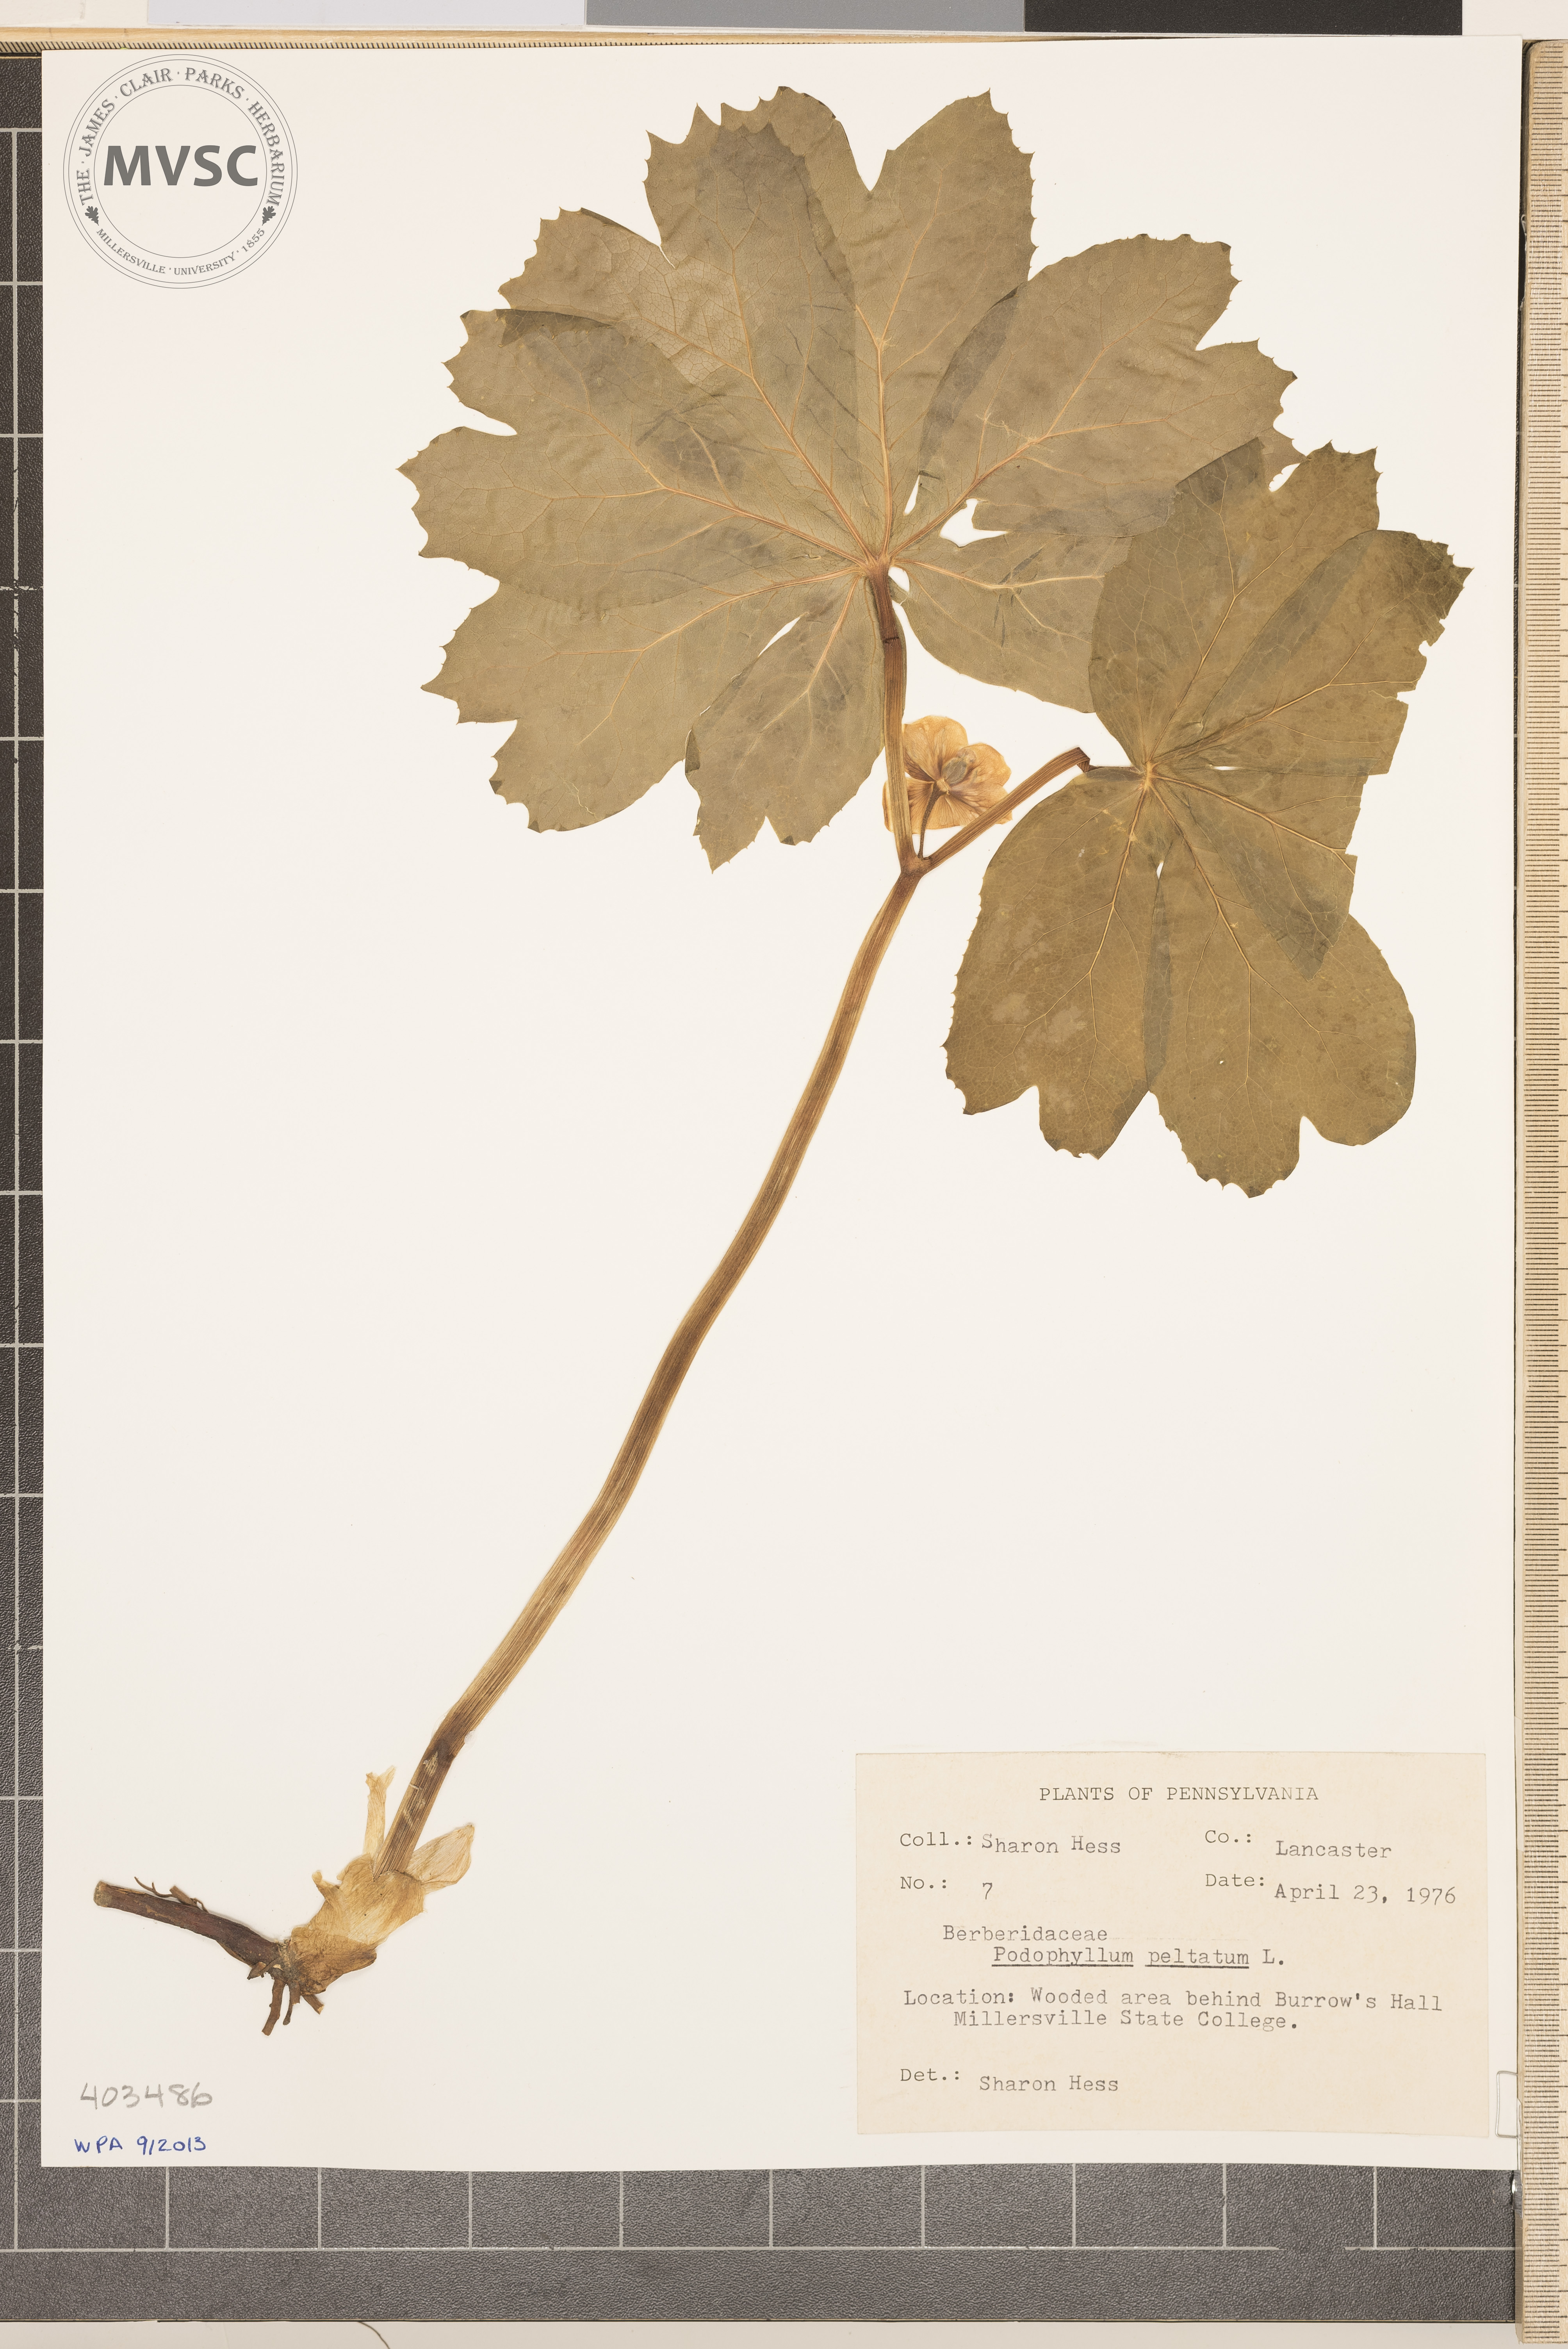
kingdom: Plantae
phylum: Tracheophyta
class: Magnoliopsida
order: Ranunculales
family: Berberidaceae
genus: Podophyllum
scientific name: Podophyllum peltatum
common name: May-Apple
